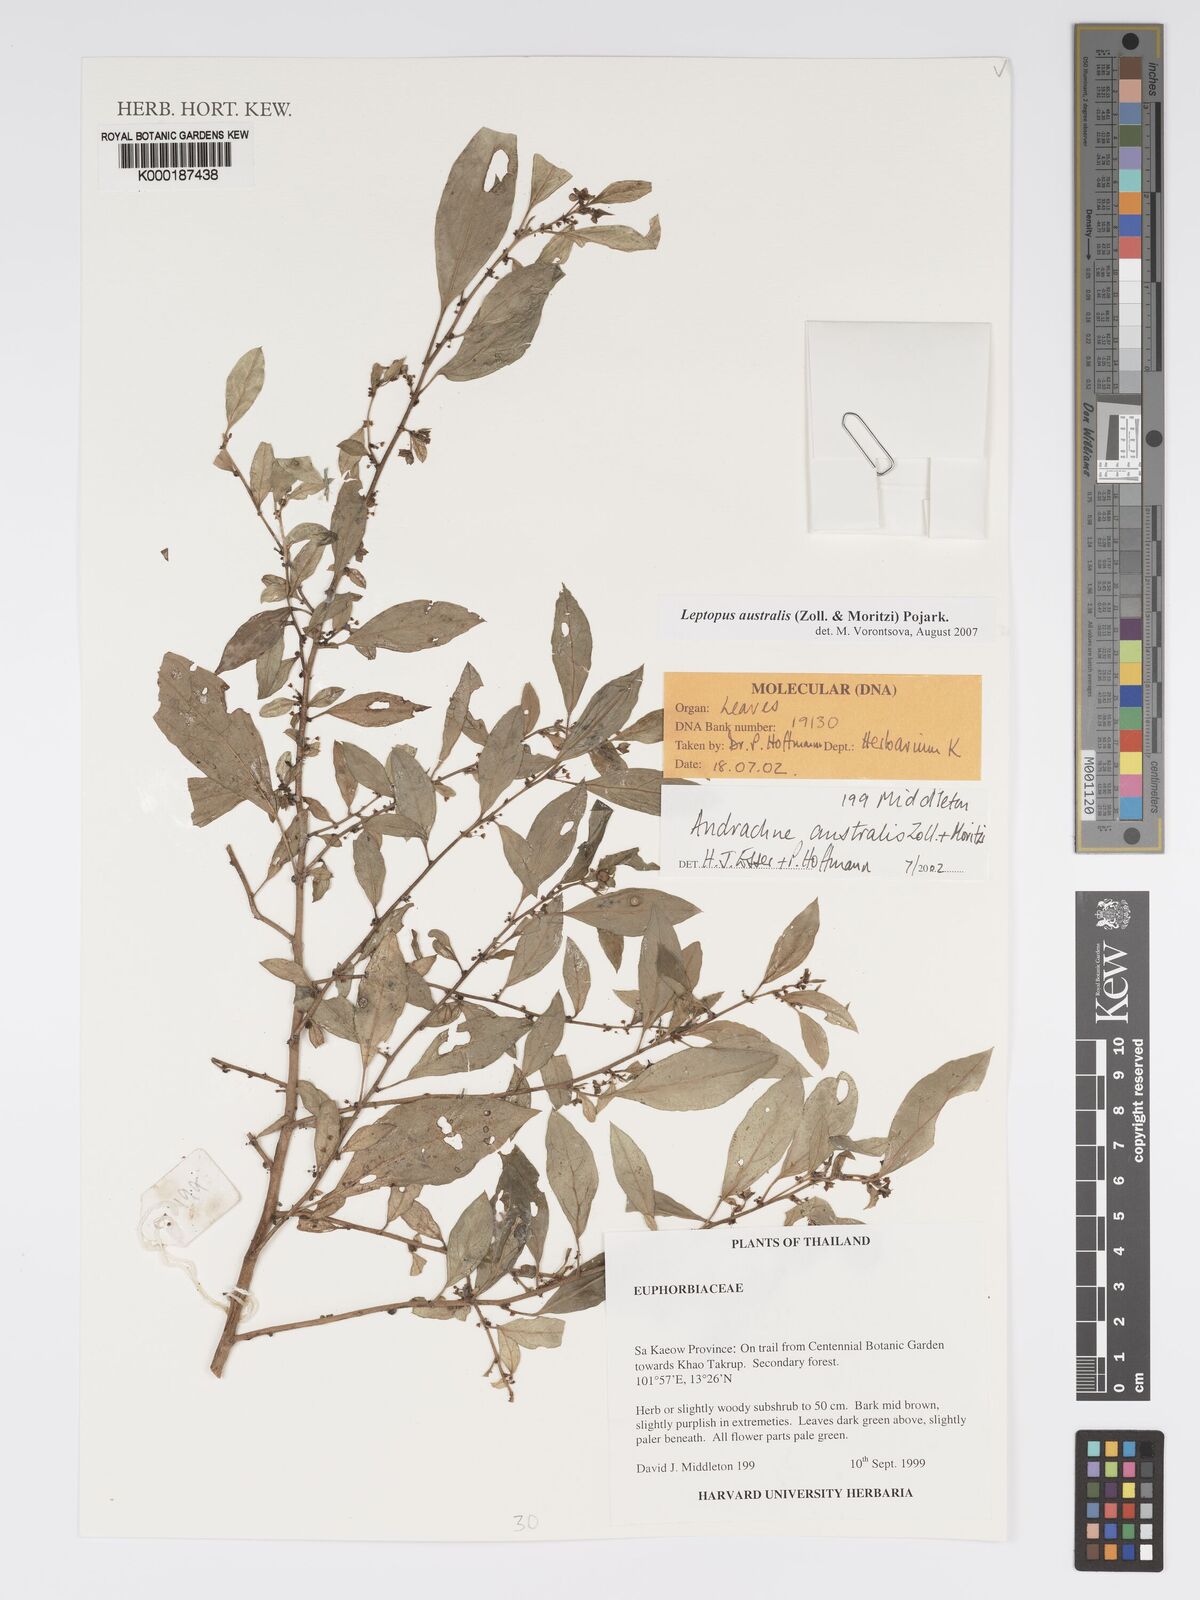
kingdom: Plantae
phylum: Tracheophyta
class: Magnoliopsida
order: Malpighiales
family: Phyllanthaceae
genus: Leptopus
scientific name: Leptopus australis
